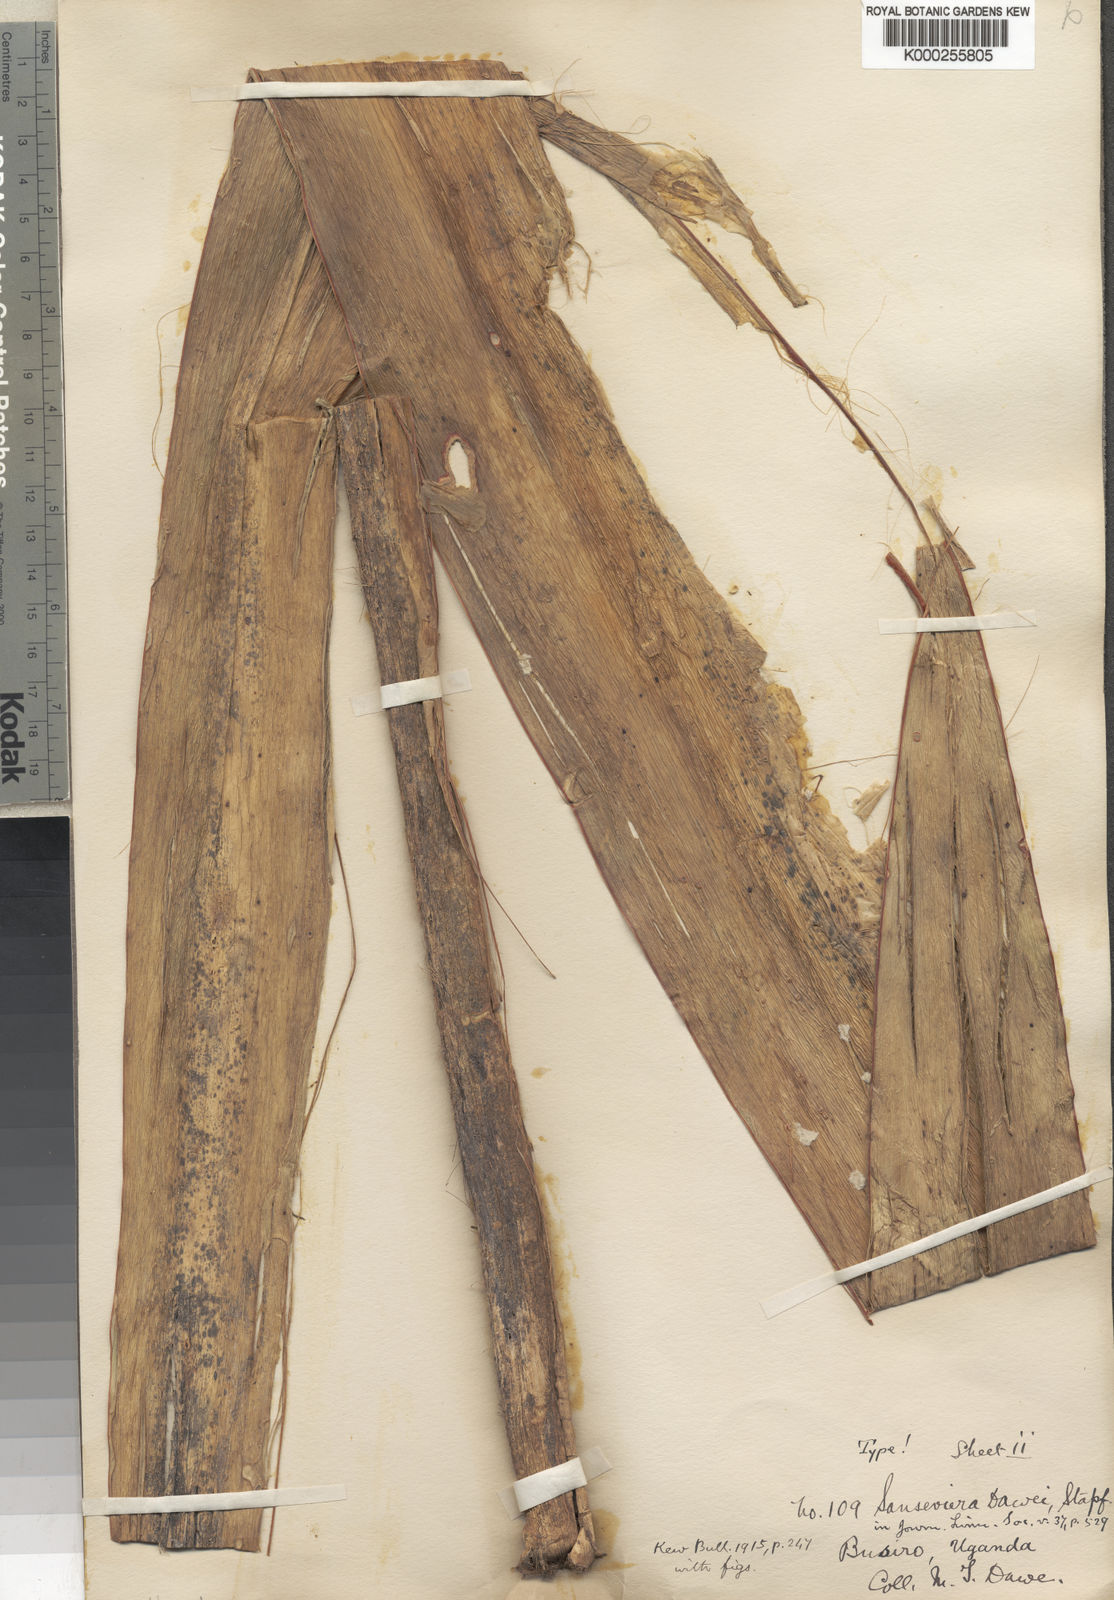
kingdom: Plantae
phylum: Tracheophyta
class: Liliopsida
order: Asparagales
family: Asparagaceae
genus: Dracaena
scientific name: Dracaena dawei
